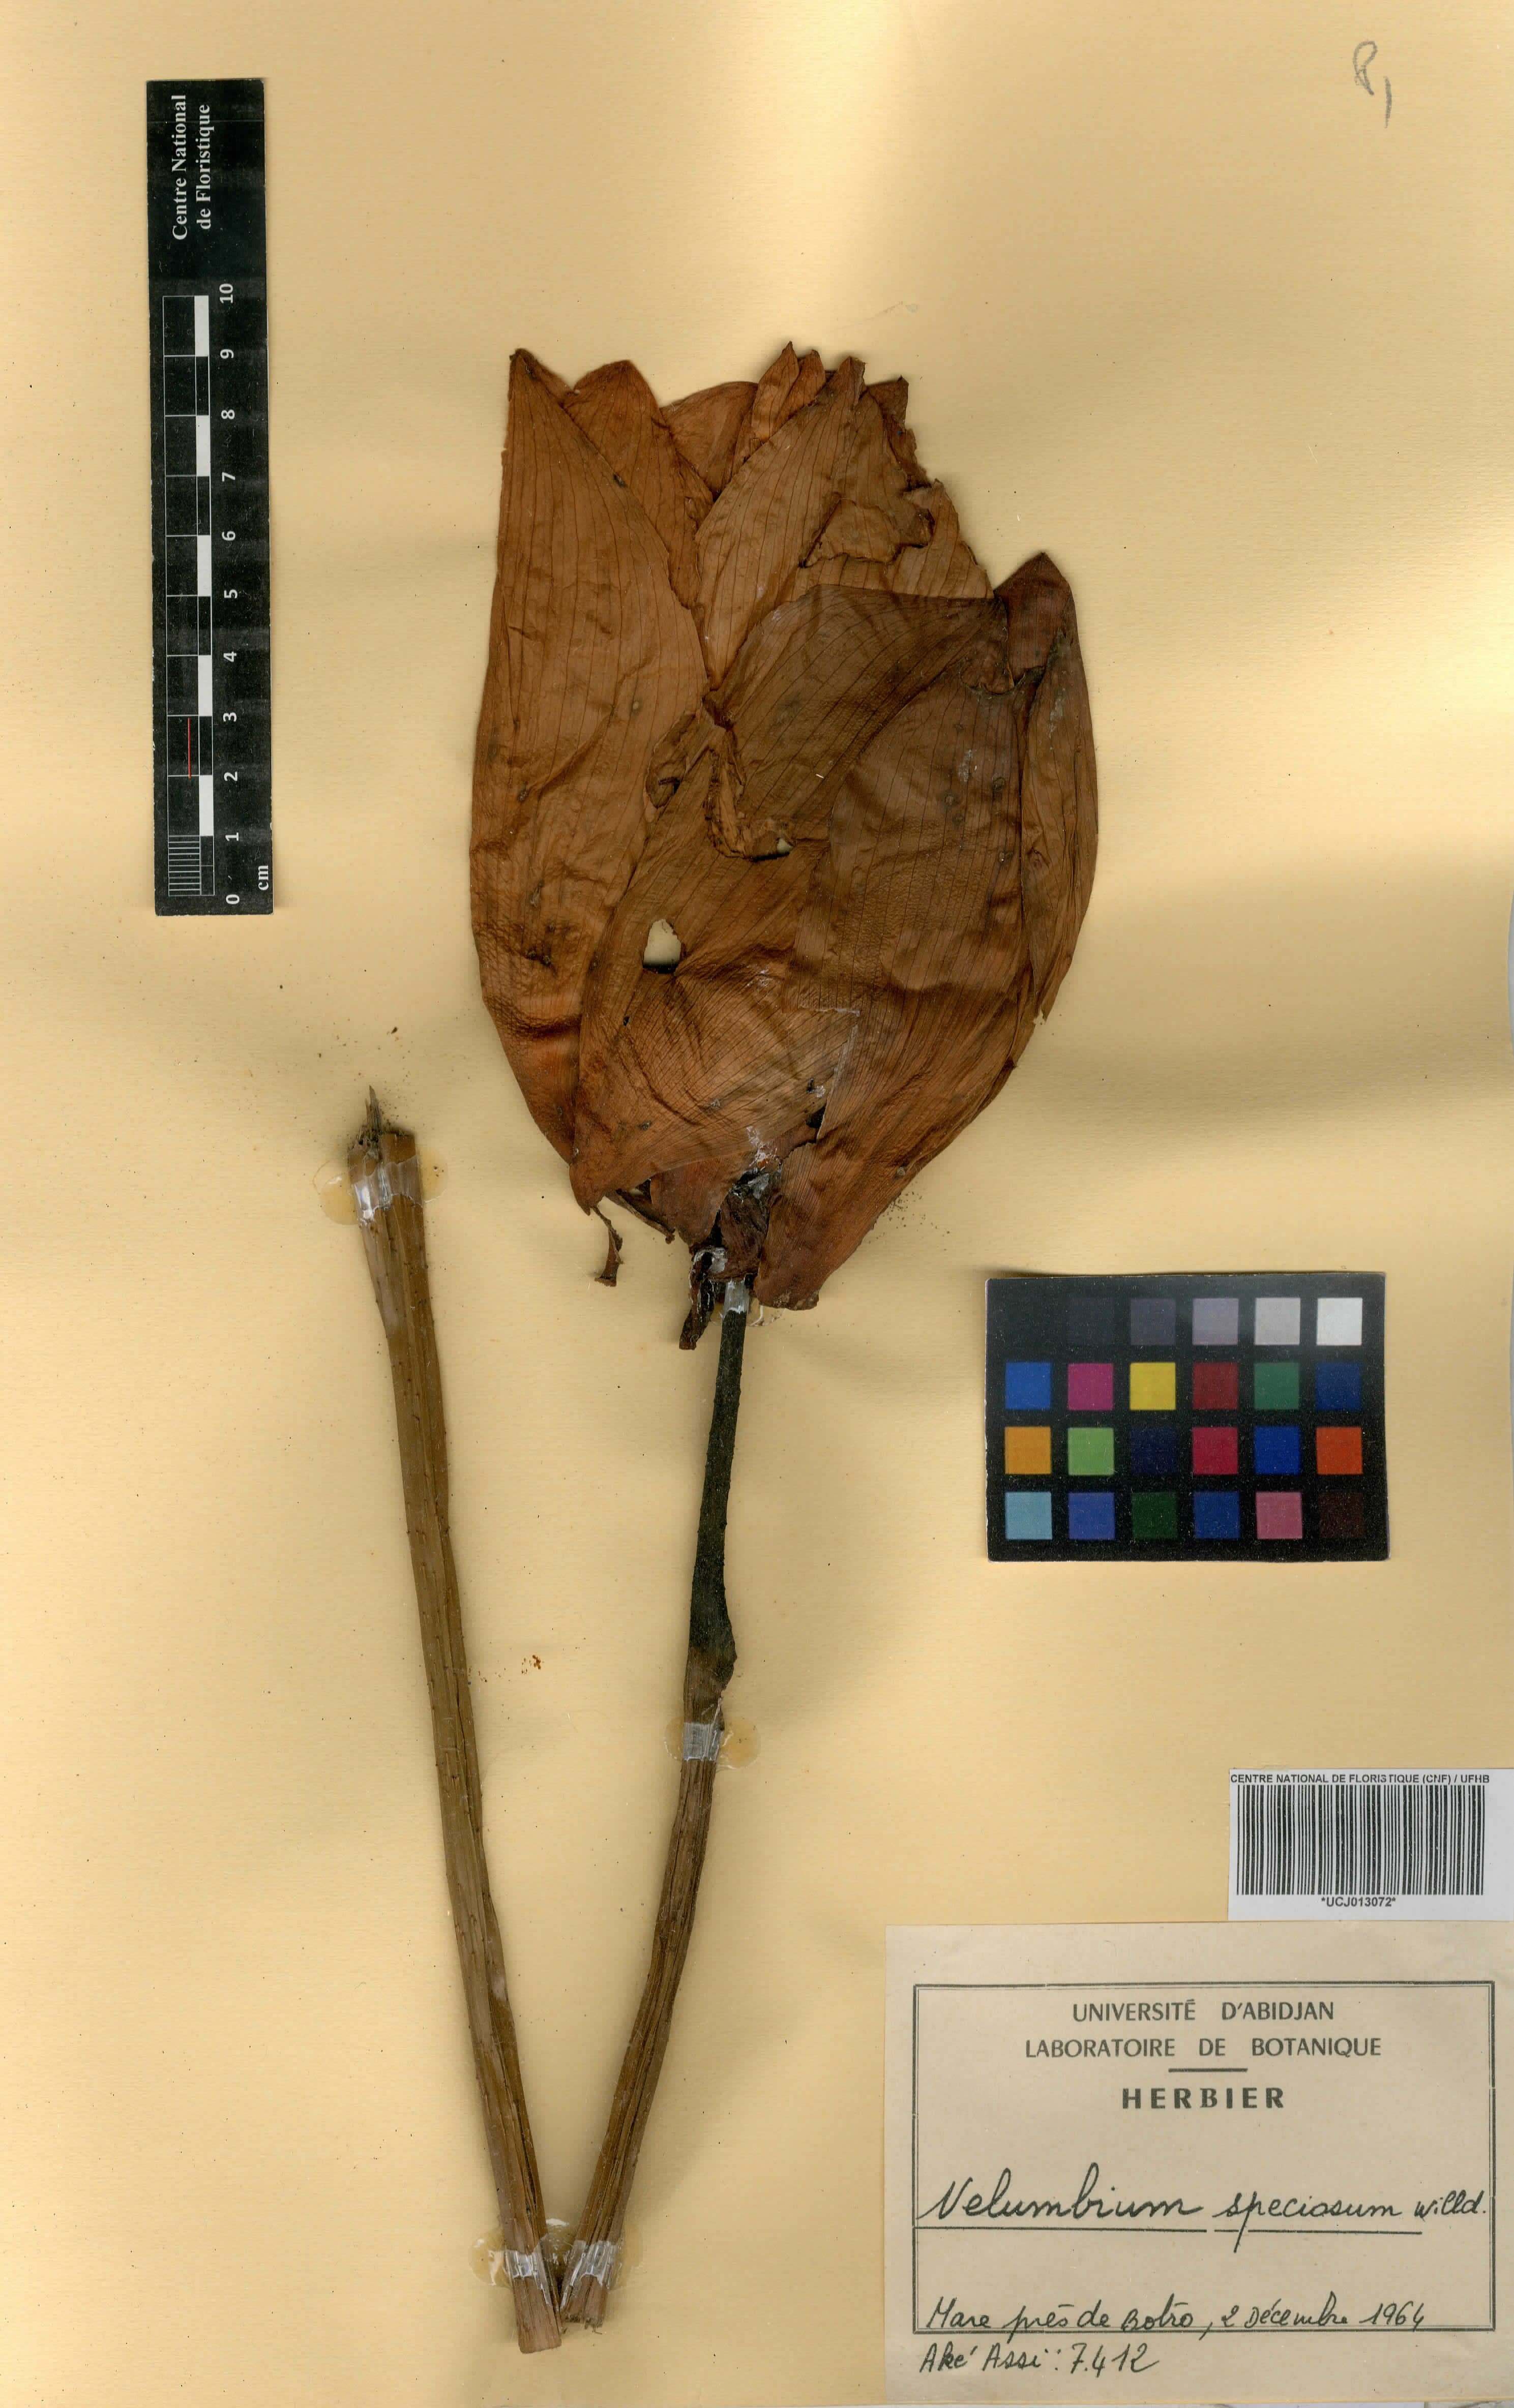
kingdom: Plantae
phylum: Tracheophyta
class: Magnoliopsida
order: Proteales
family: Nelumbonaceae
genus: Nelumbo
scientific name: Nelumbo nucifera
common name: Sacred lotus
